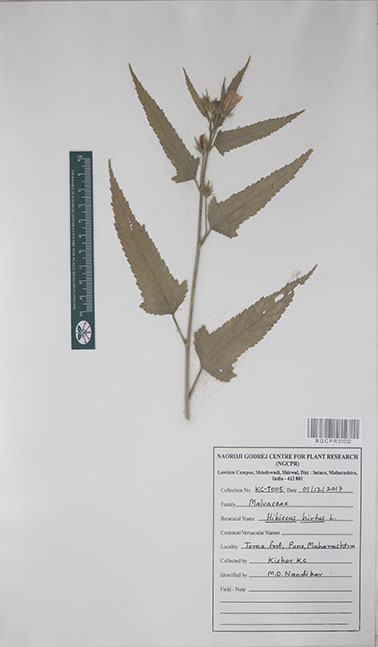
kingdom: Plantae
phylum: Tracheophyta
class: Magnoliopsida
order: Malvales
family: Malvaceae
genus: Hibiscus
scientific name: Hibiscus hirtus
